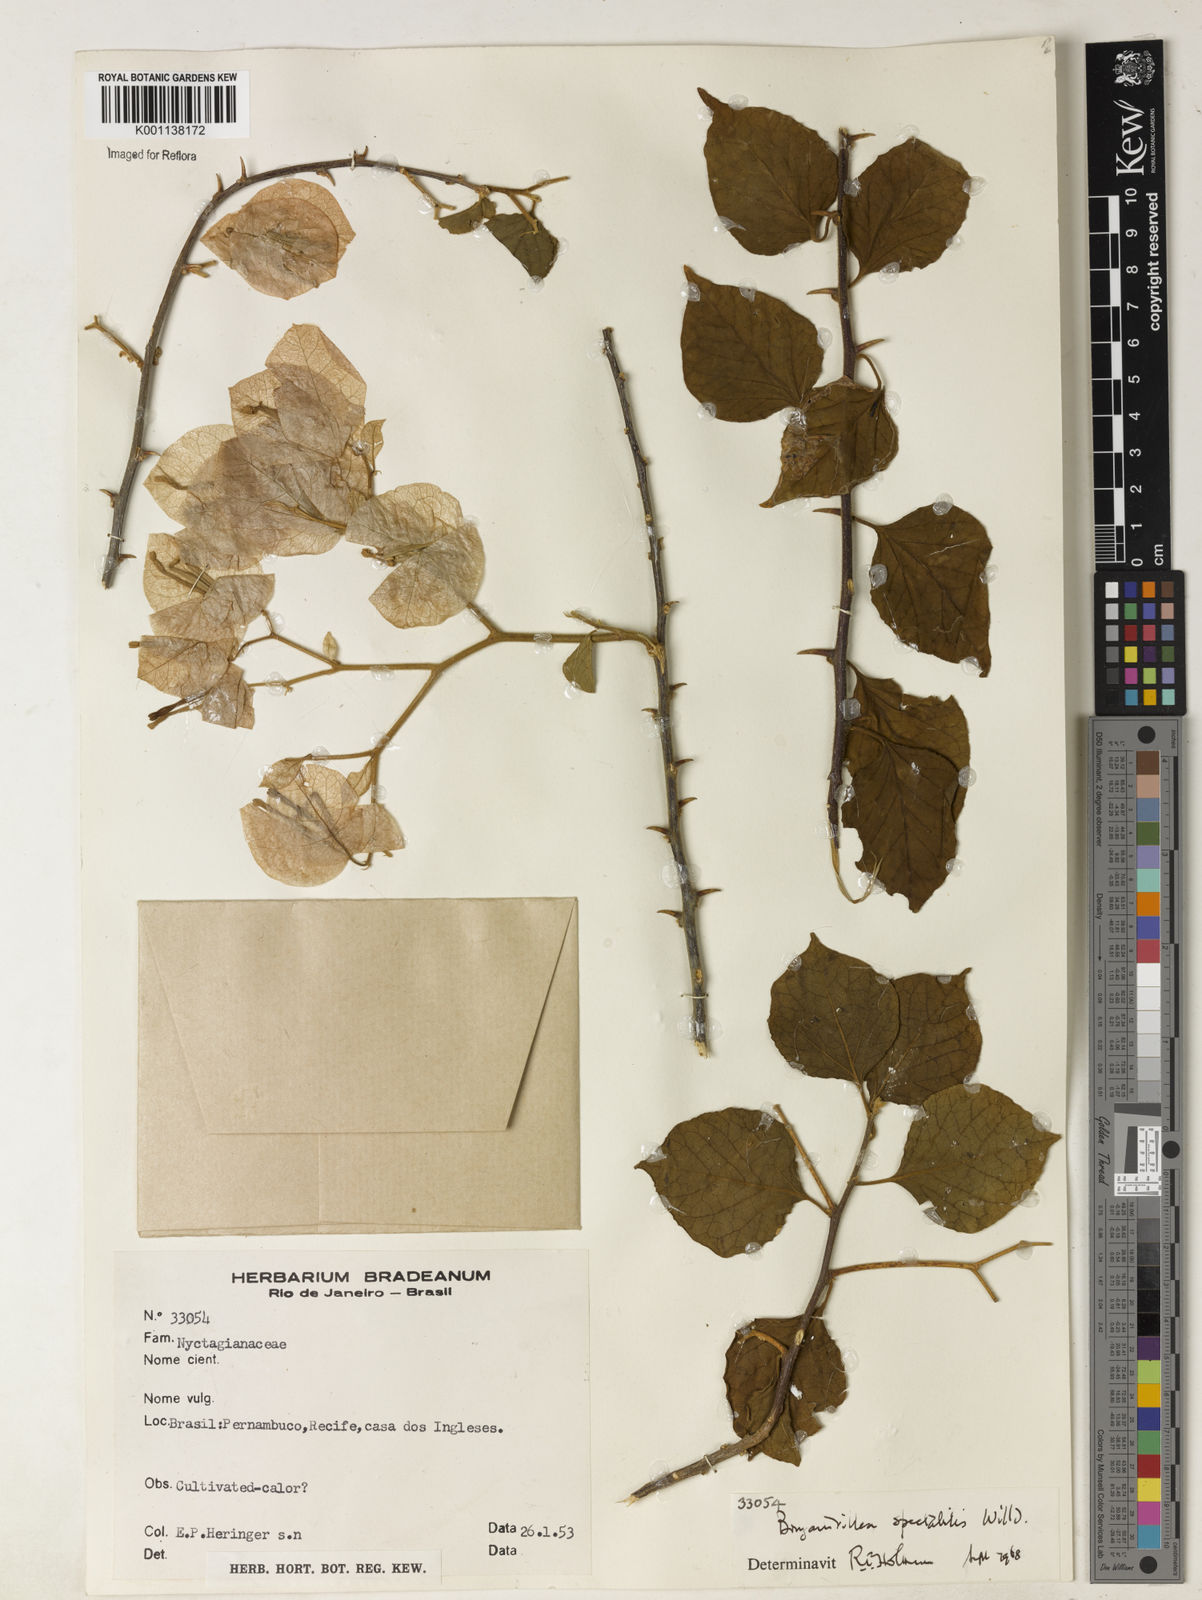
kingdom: Plantae
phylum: Tracheophyta
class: Magnoliopsida
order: Caryophyllales
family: Nyctaginaceae
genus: Bougainvillea
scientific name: Bougainvillea spectabilis
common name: Great bougainvillea
